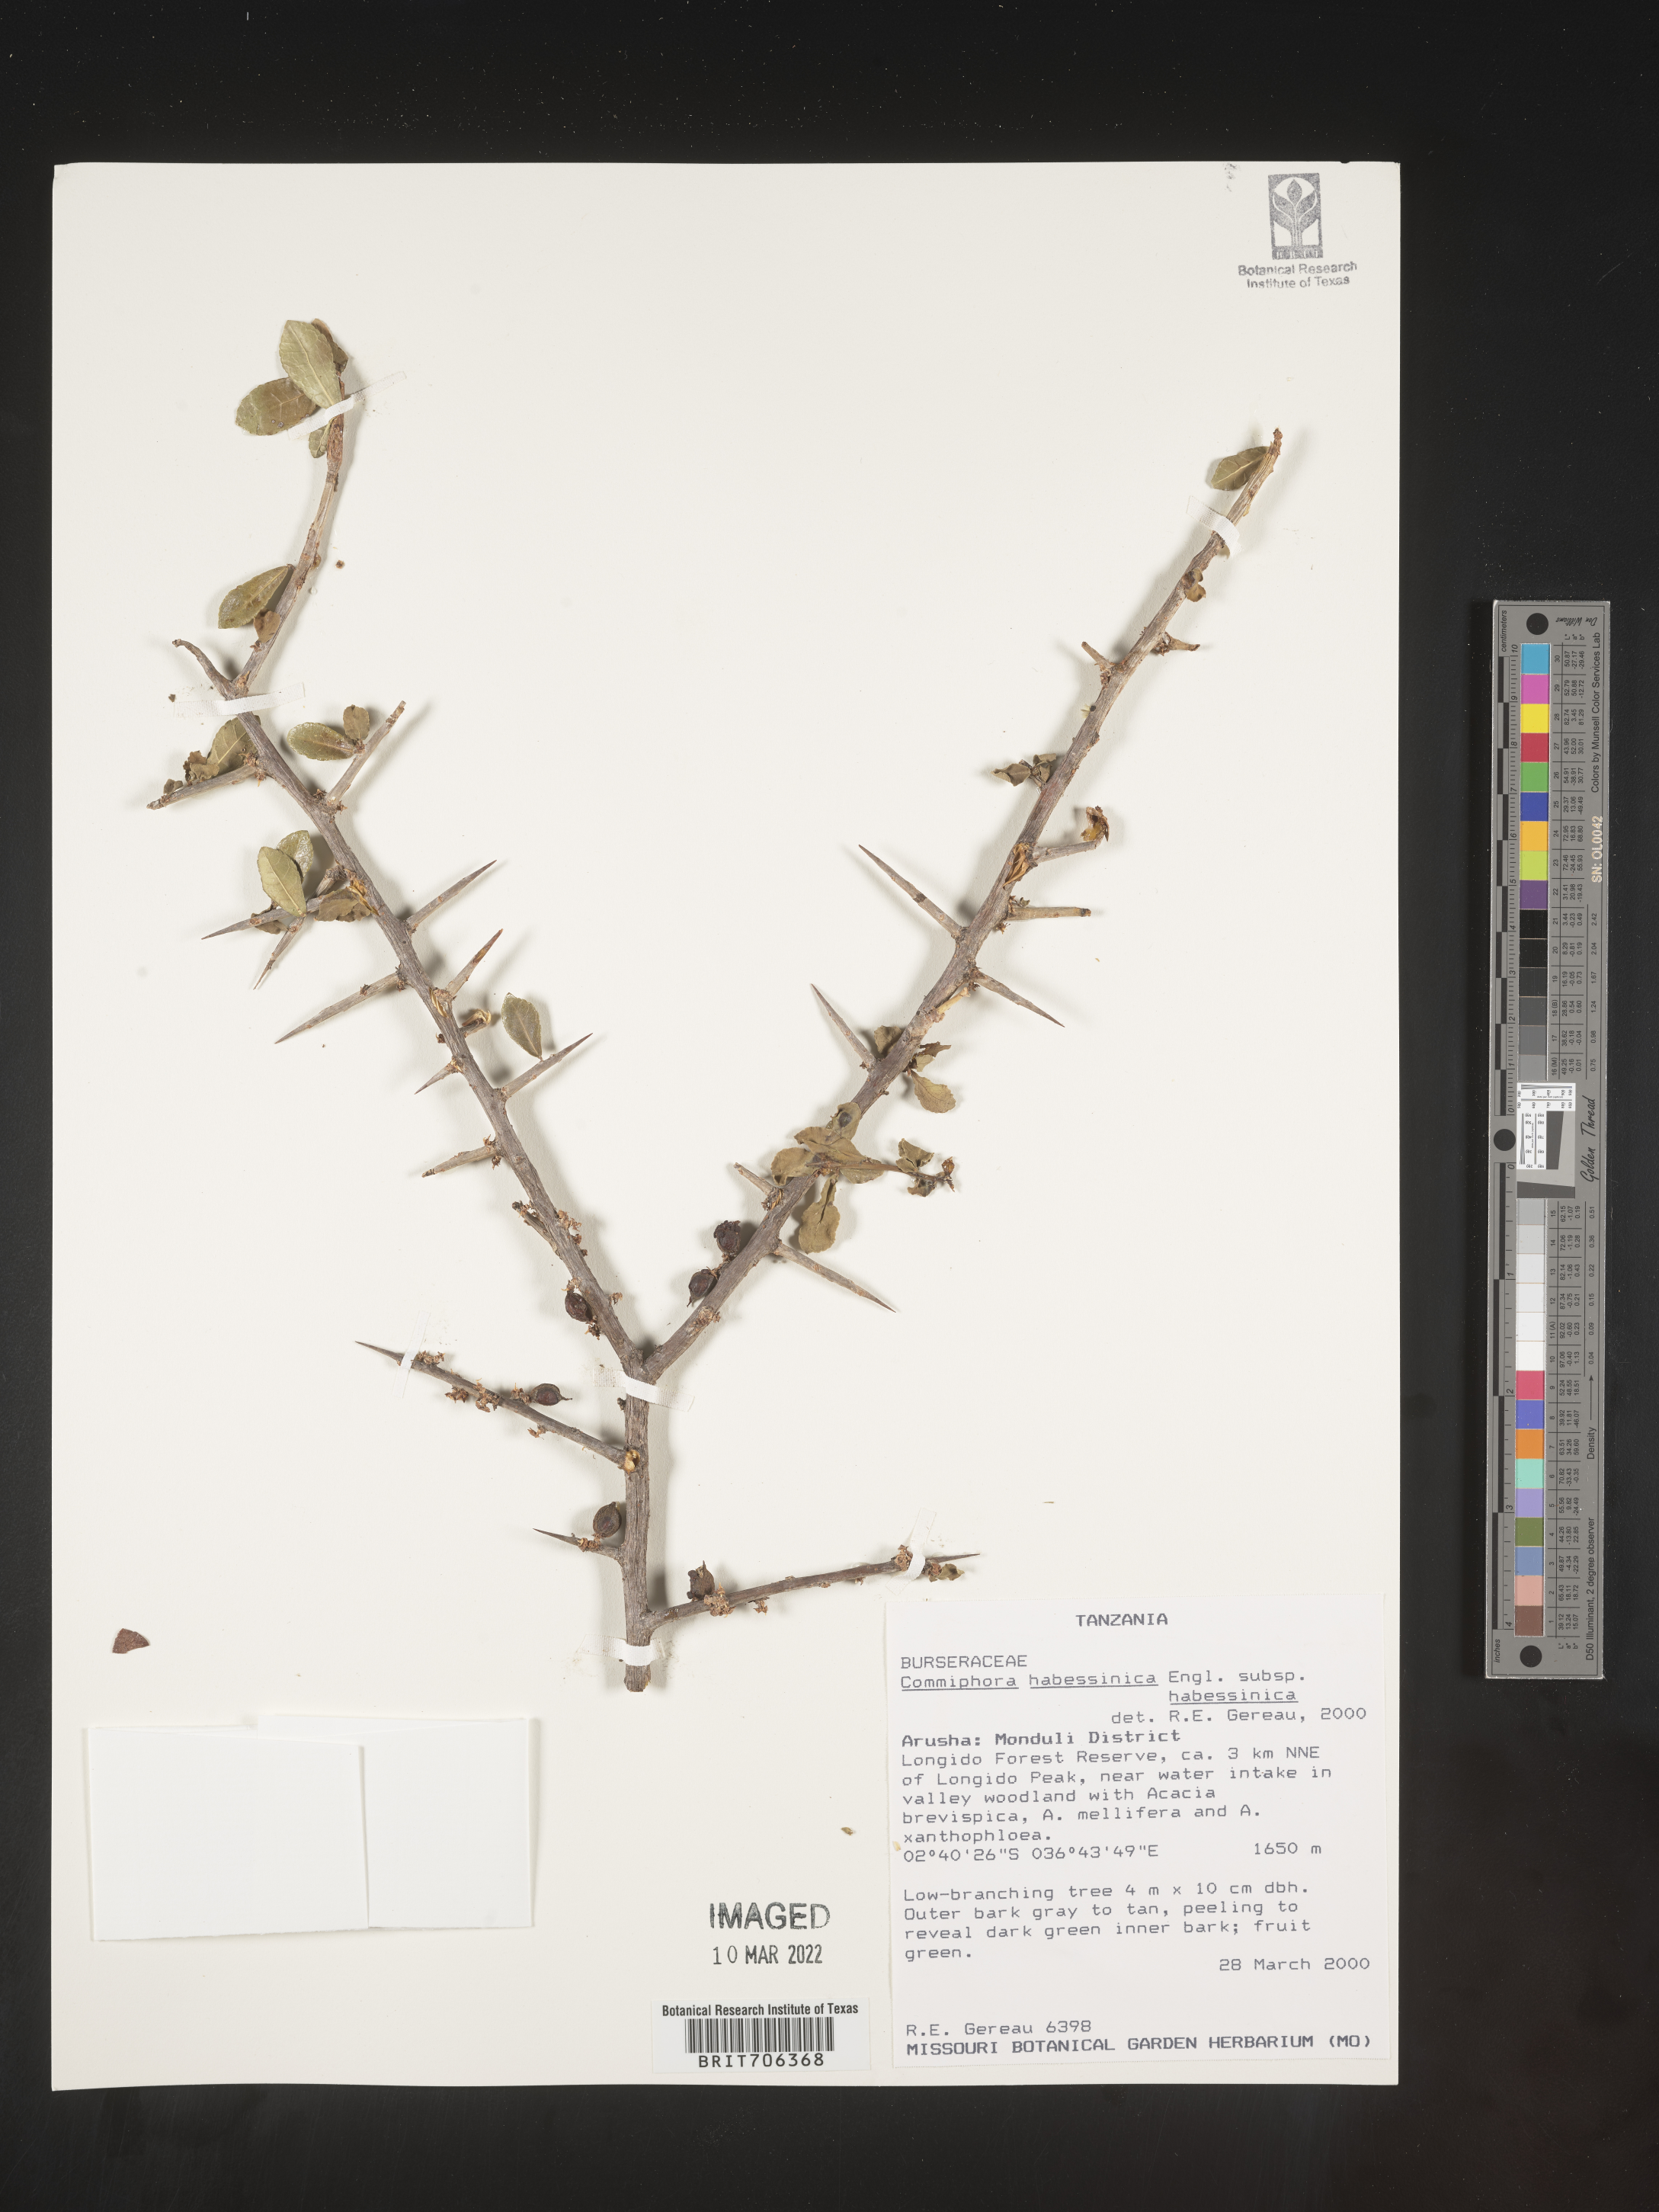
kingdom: Plantae
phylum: Tracheophyta
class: Magnoliopsida
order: Sapindales
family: Burseraceae
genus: Commiphora
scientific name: Commiphora
